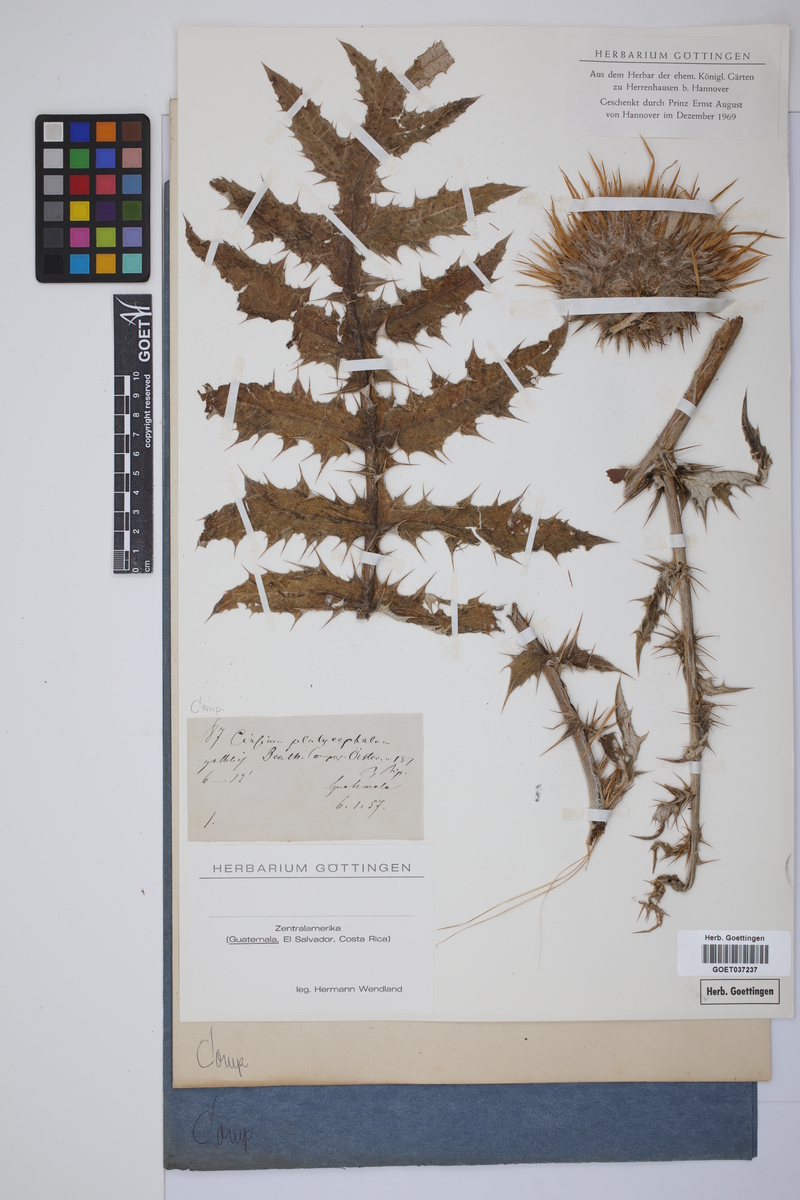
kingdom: Plantae
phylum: Tracheophyta
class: Magnoliopsida
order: Asterales
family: Asteraceae
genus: Cirsium
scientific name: Cirsium subcoriaceum
